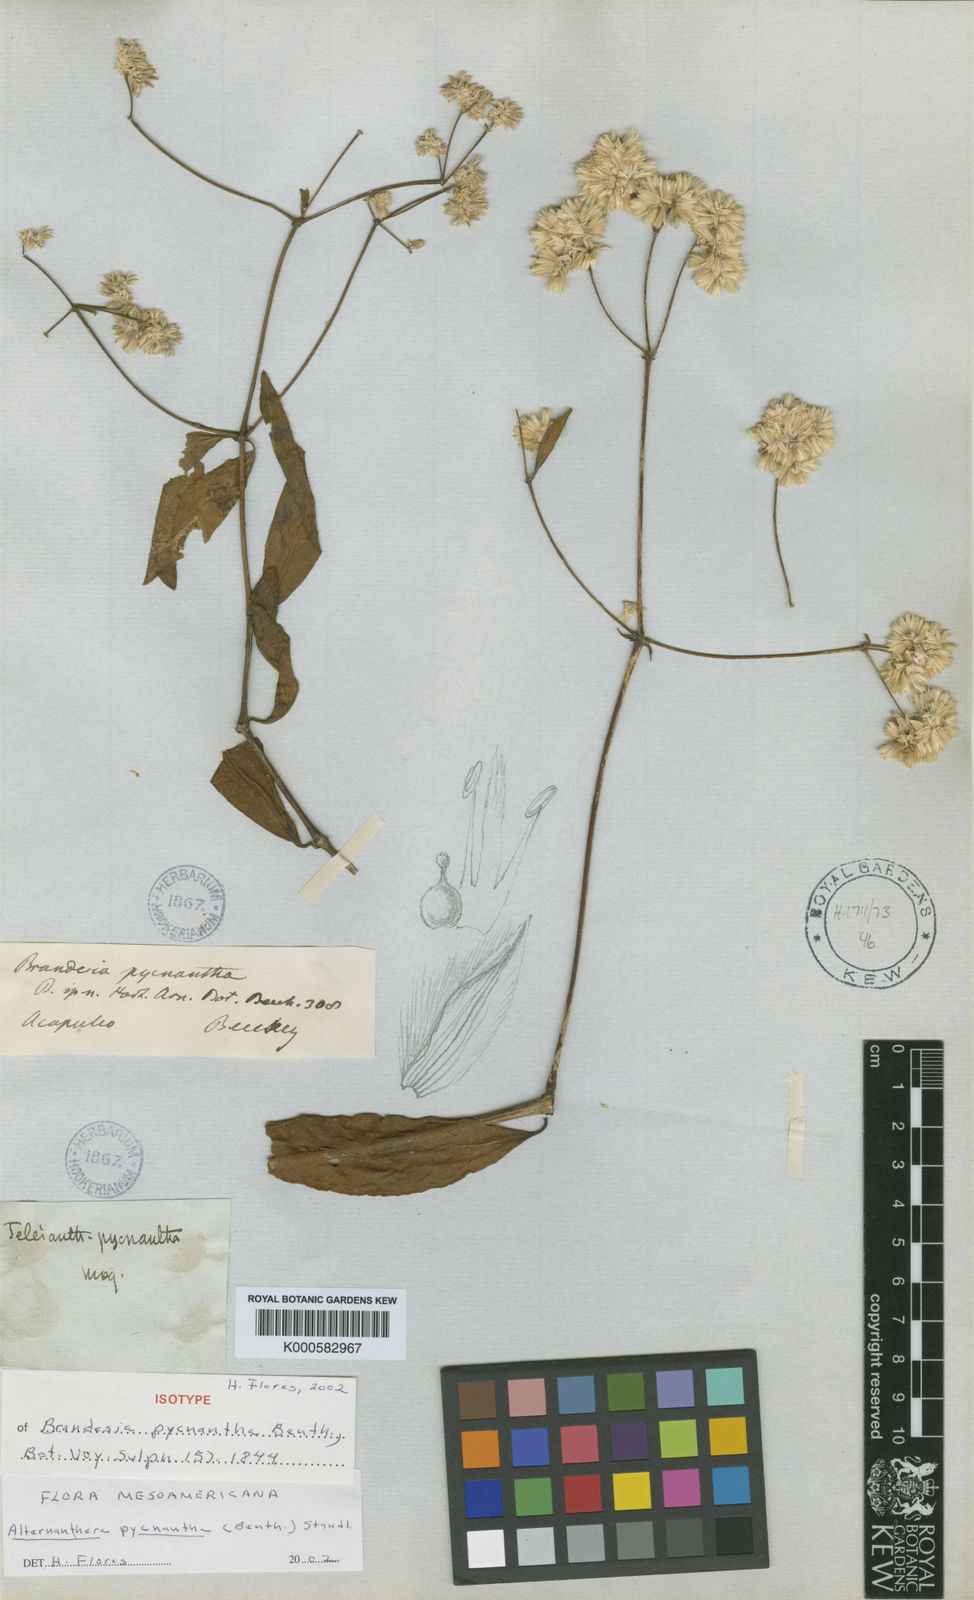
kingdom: Plantae
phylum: Tracheophyta
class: Magnoliopsida
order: Caryophyllales
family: Amaranthaceae
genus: Alternanthera
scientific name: Alternanthera pycnantha
